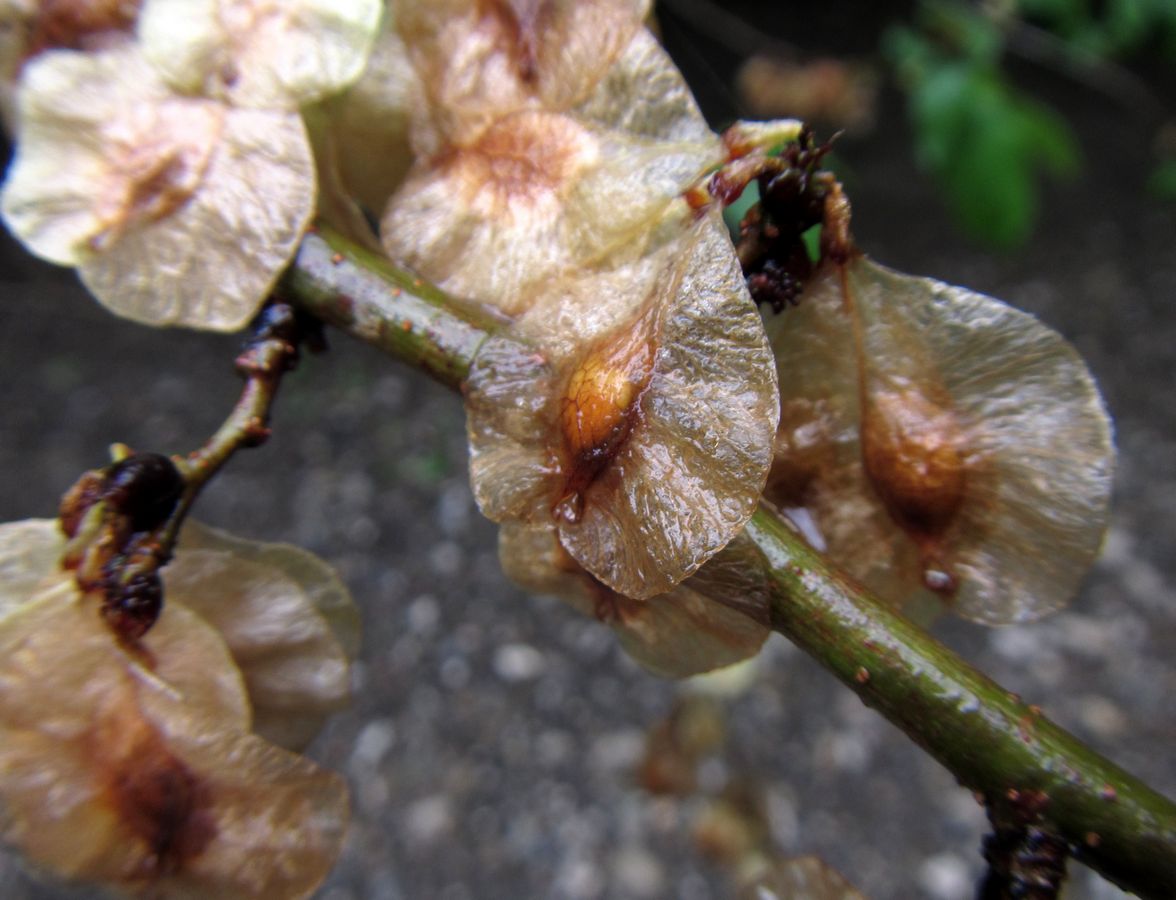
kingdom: Plantae
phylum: Tracheophyta
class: Magnoliopsida
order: Rosales
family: Ulmaceae
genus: Ulmus
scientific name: Ulmus
